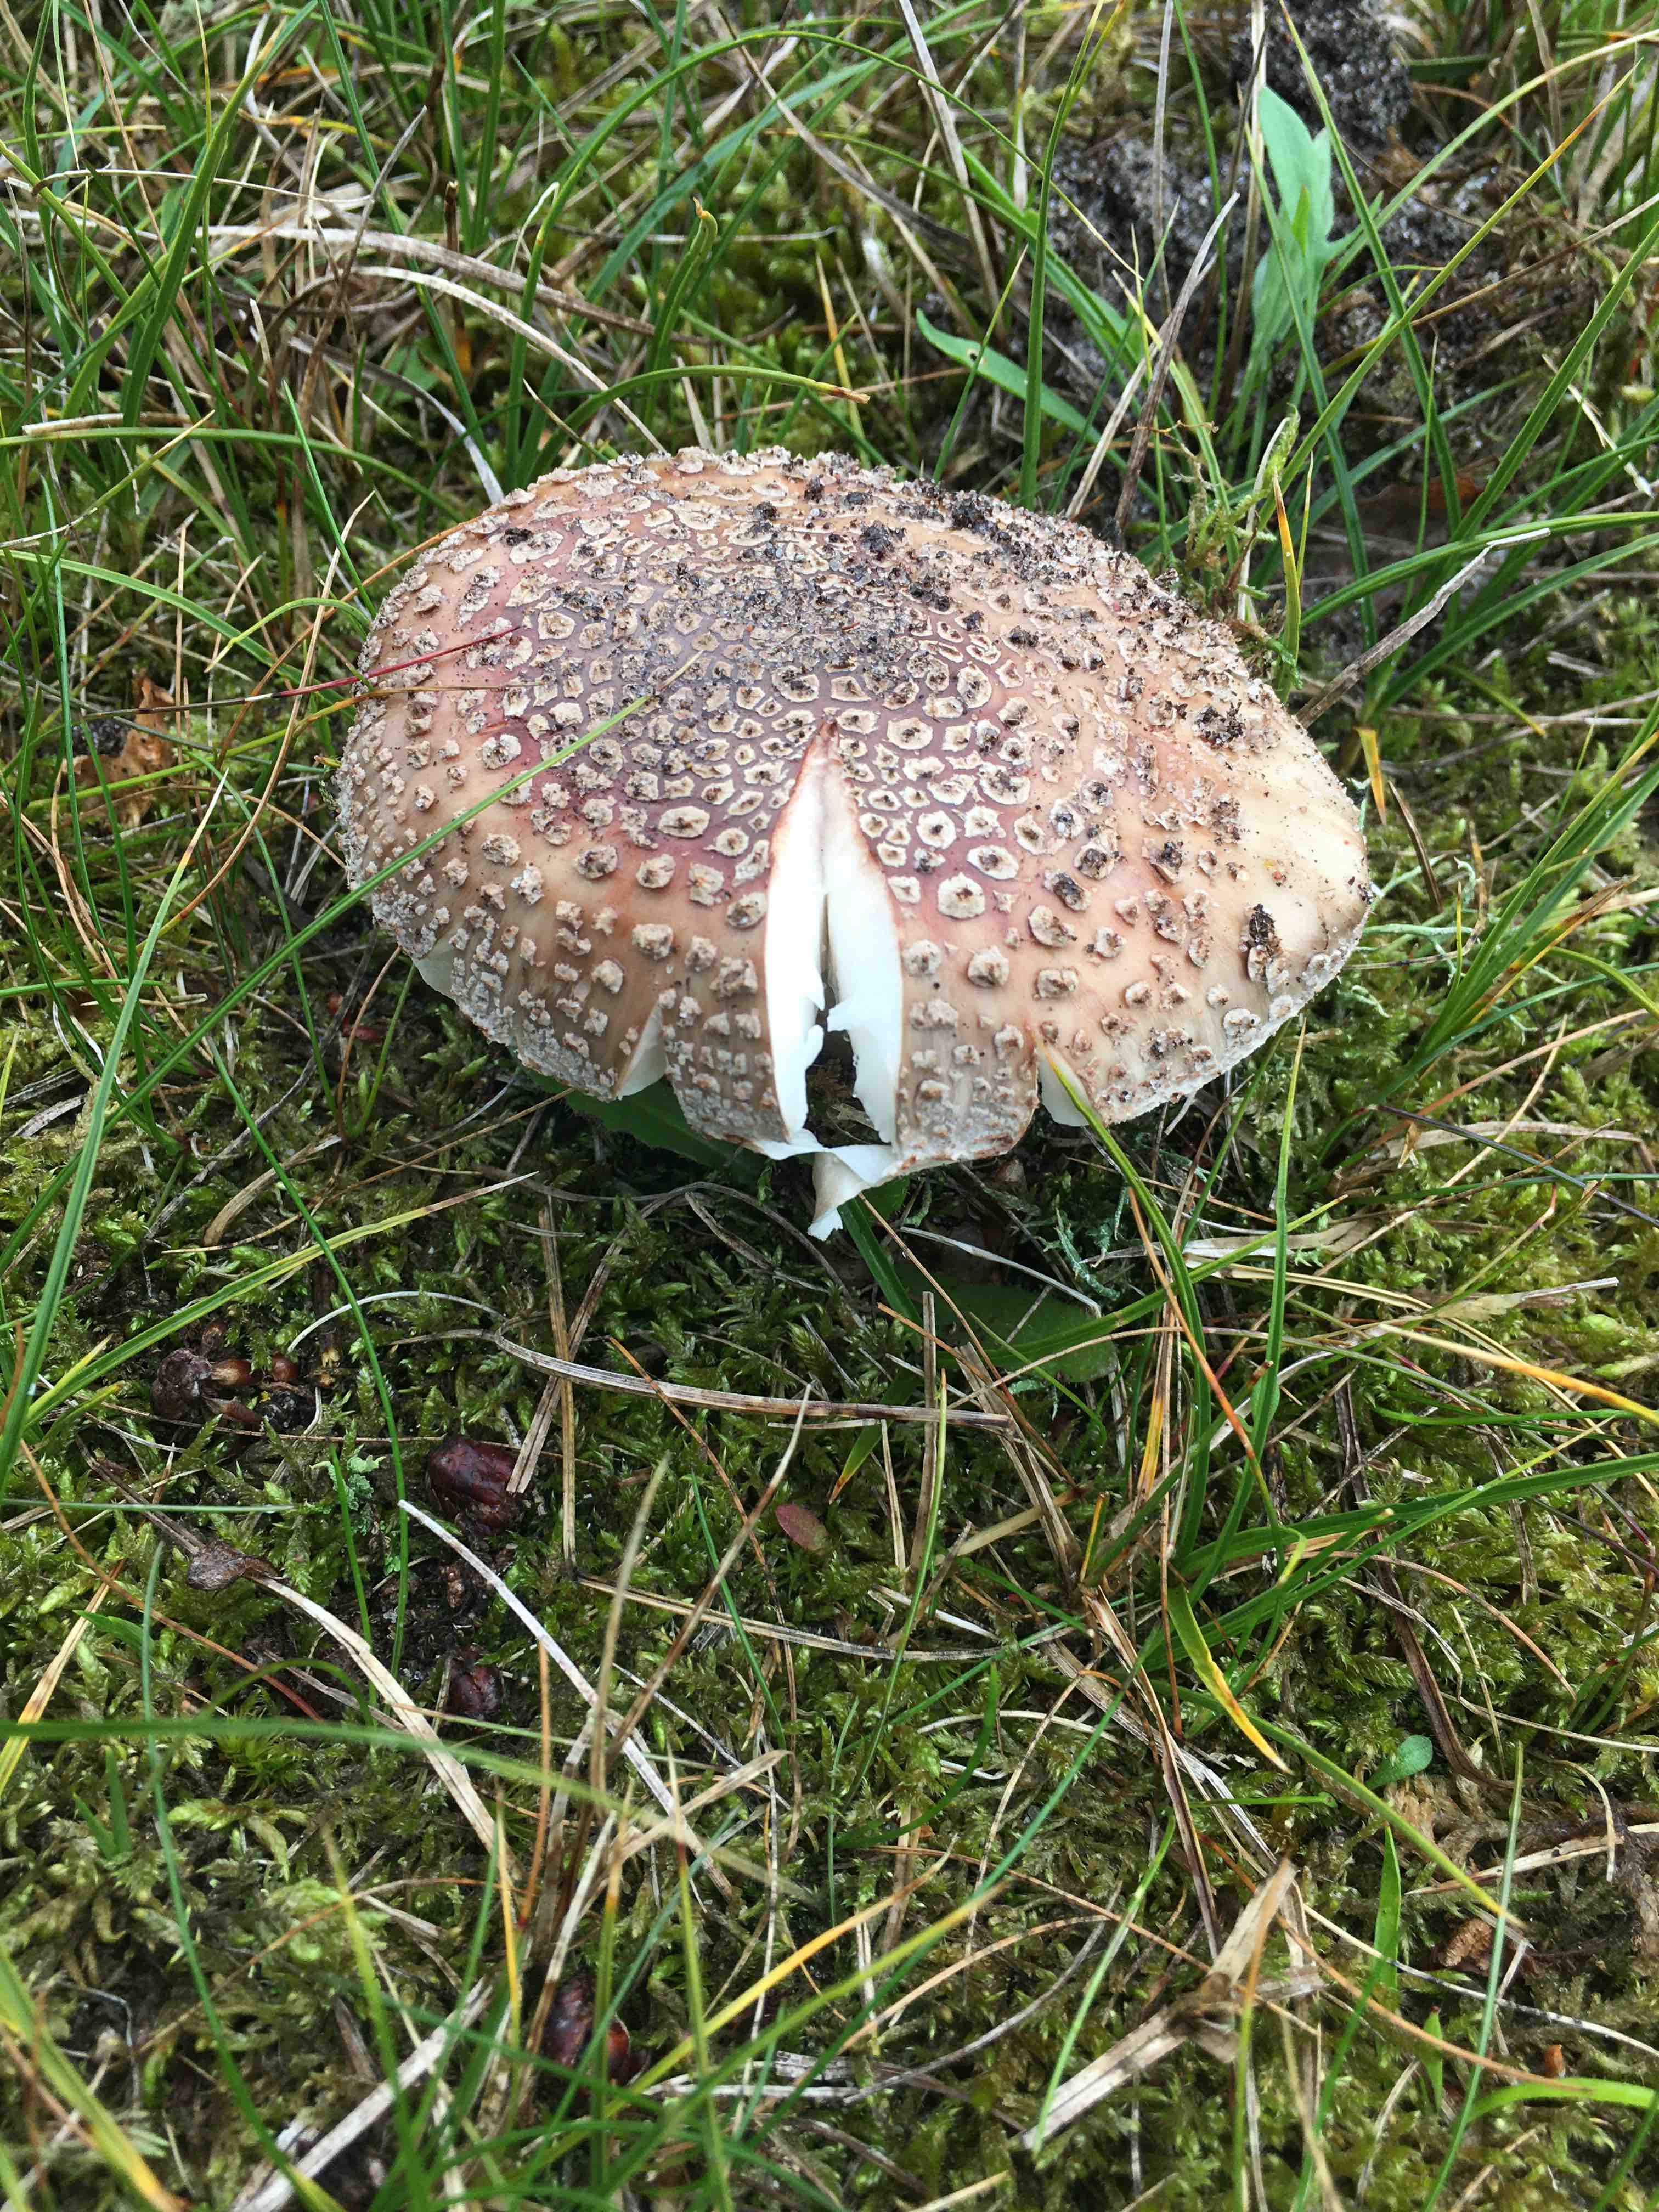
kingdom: Fungi
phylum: Basidiomycota
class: Agaricomycetes
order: Agaricales
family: Amanitaceae
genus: Amanita
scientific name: Amanita rubescens
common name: rødmende fluesvamp
